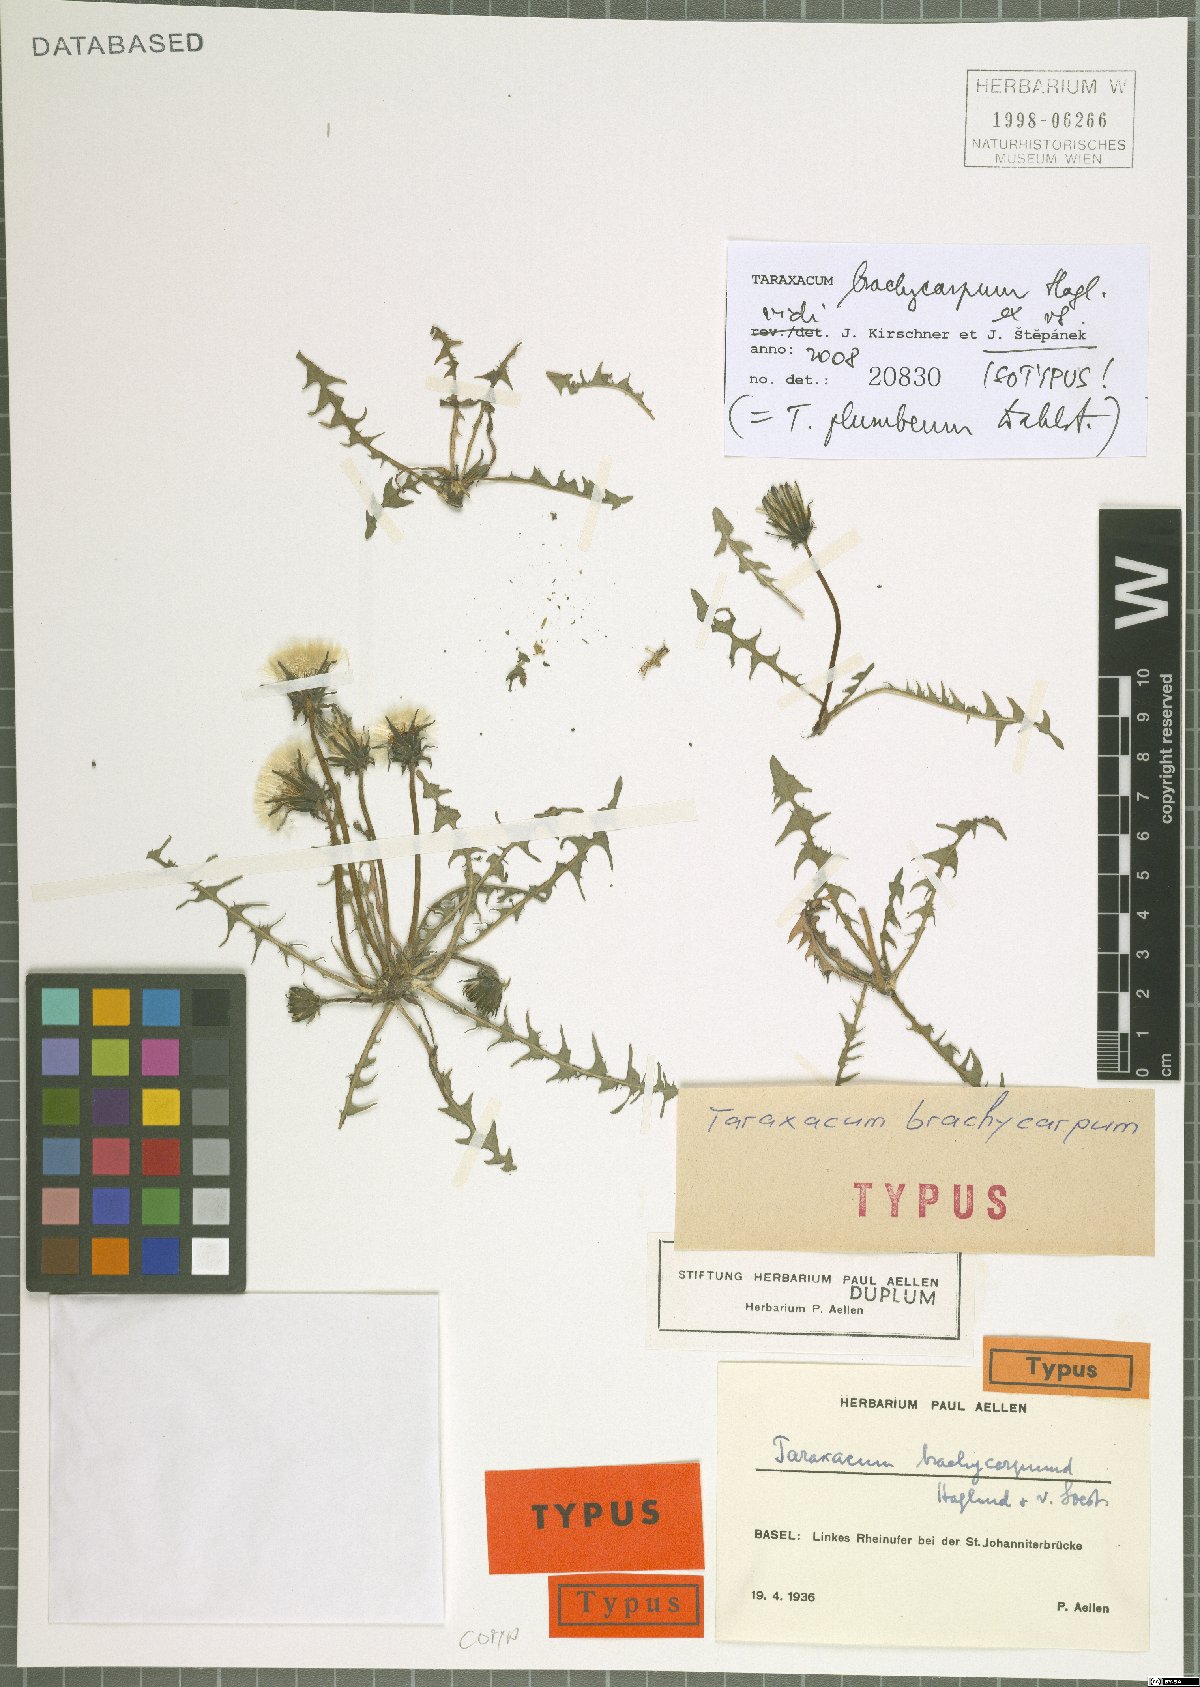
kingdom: Plantae
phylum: Tracheophyta
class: Magnoliopsida
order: Asterales
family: Asteraceae
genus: Taraxacum
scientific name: Taraxacum plumbeum
